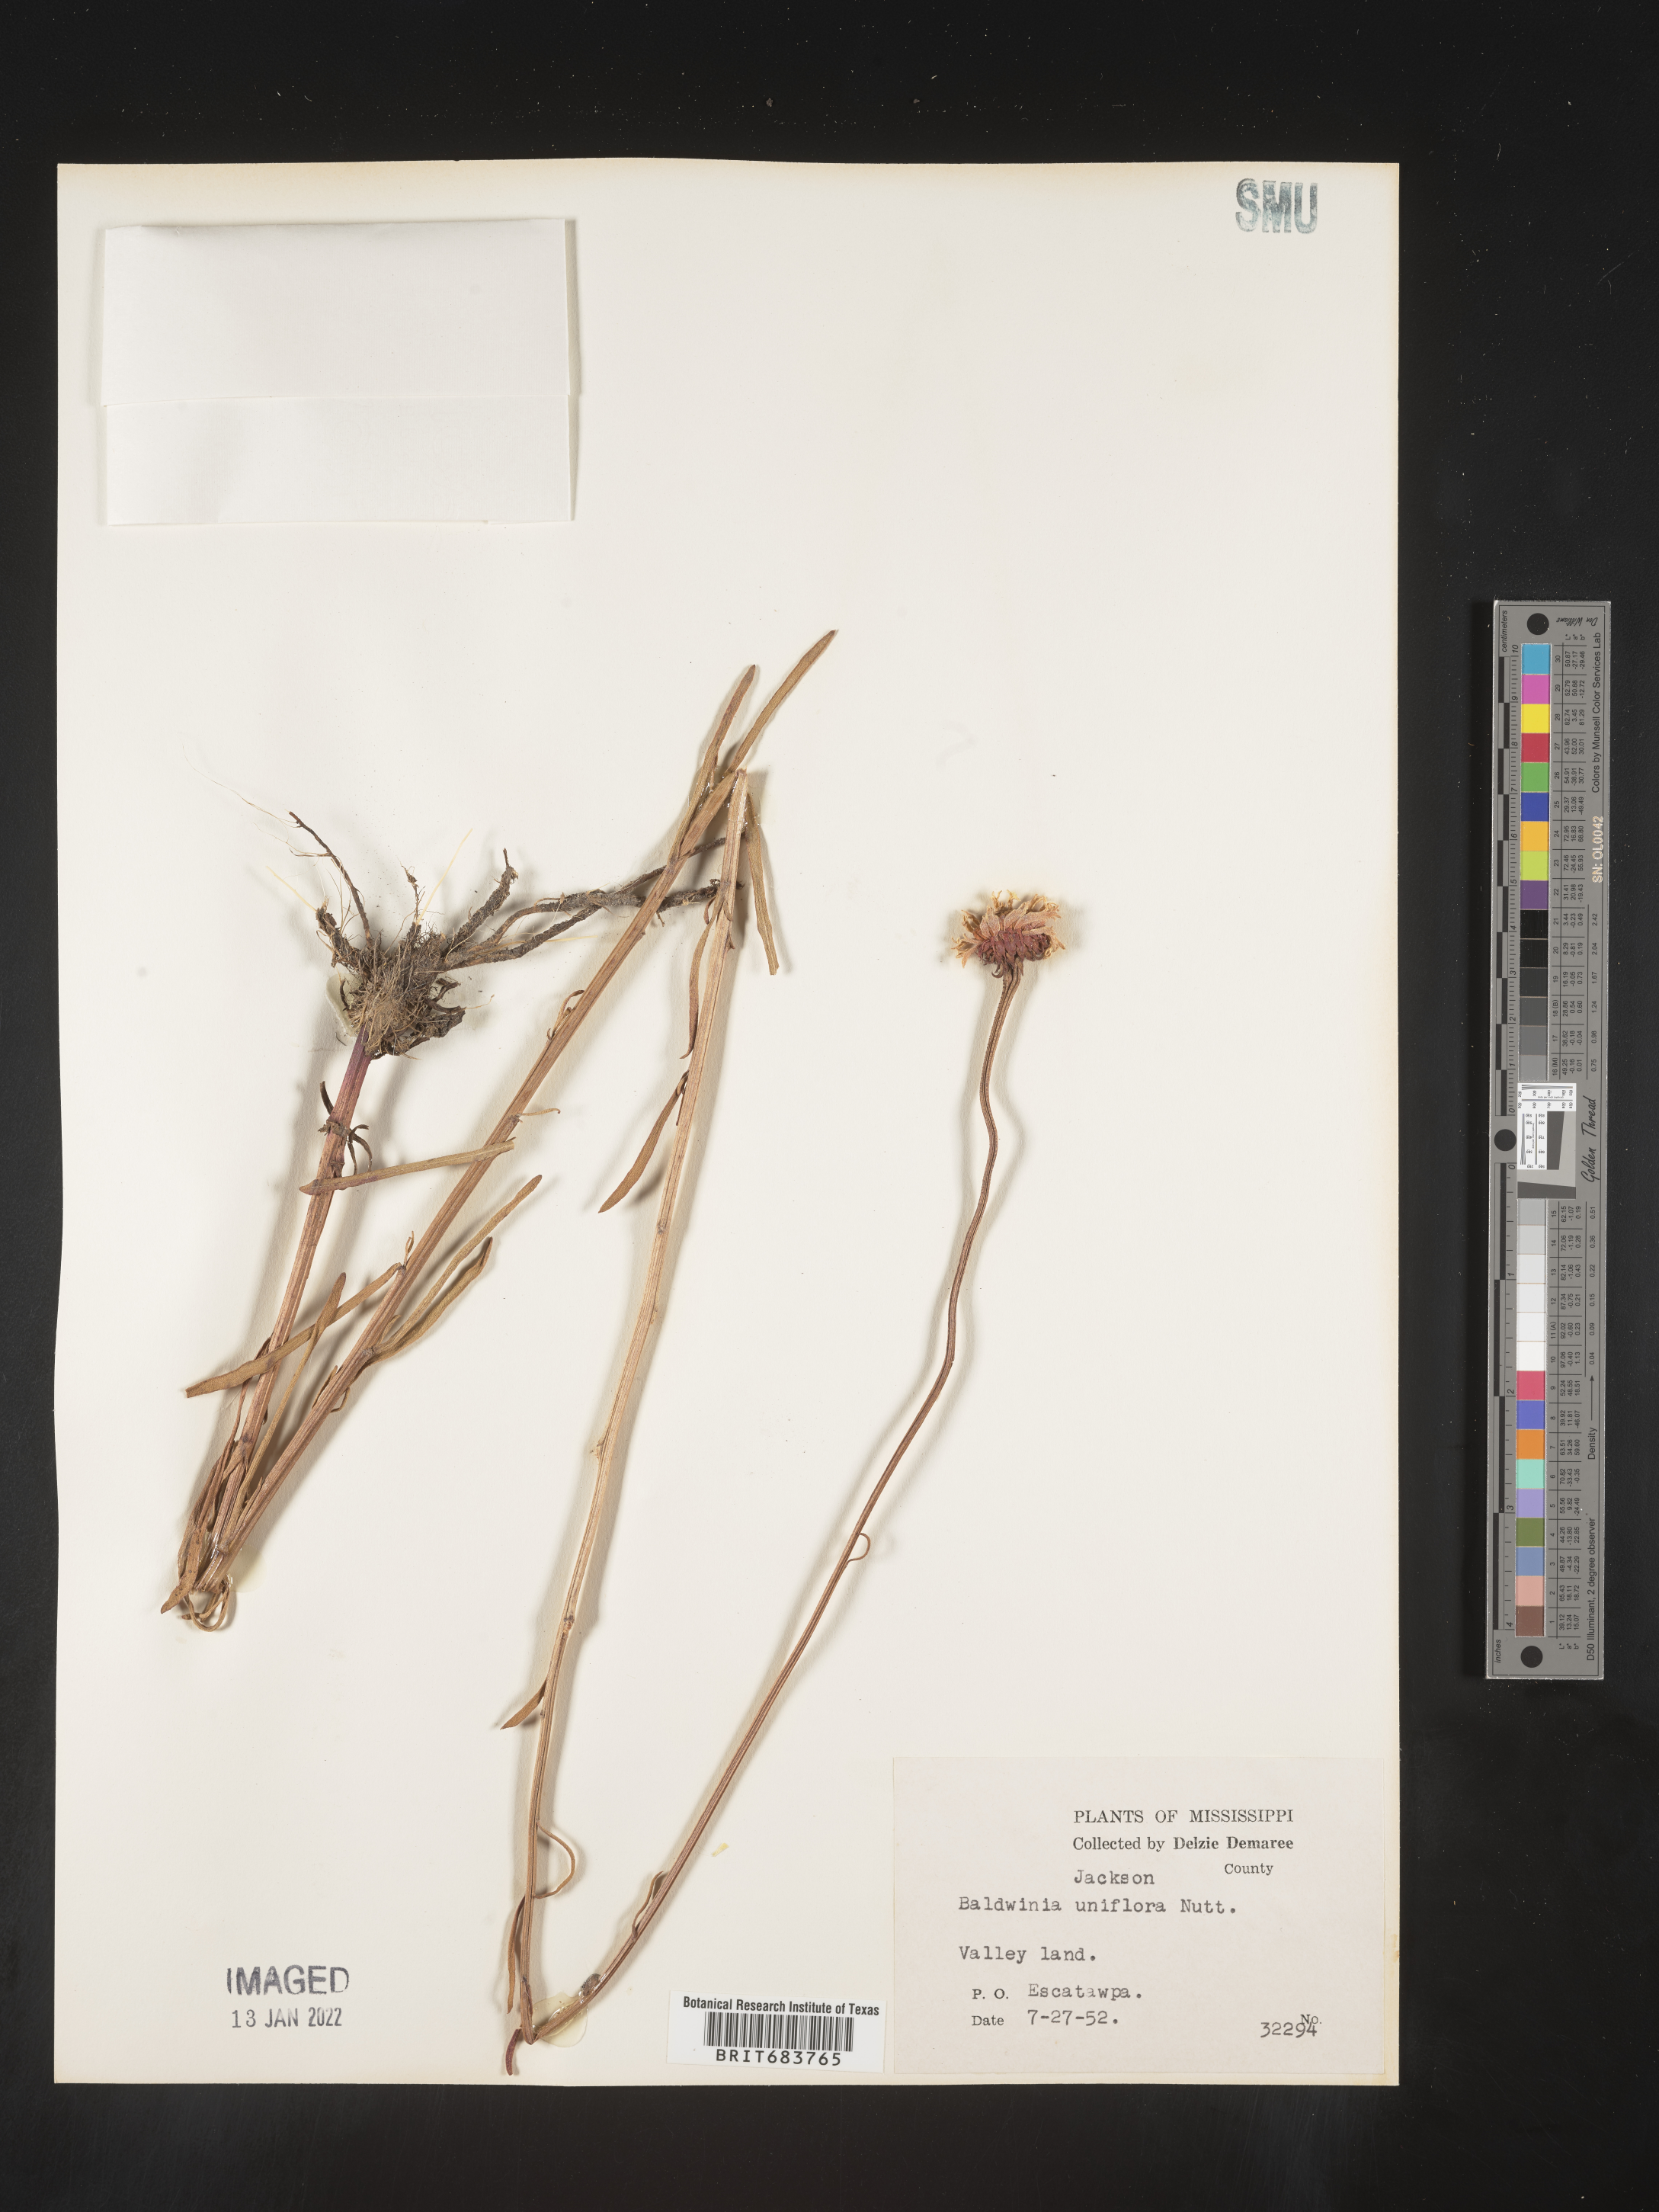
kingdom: Plantae
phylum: Tracheophyta
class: Magnoliopsida
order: Asterales
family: Asteraceae
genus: Balduina
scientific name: Balduina uniflora
